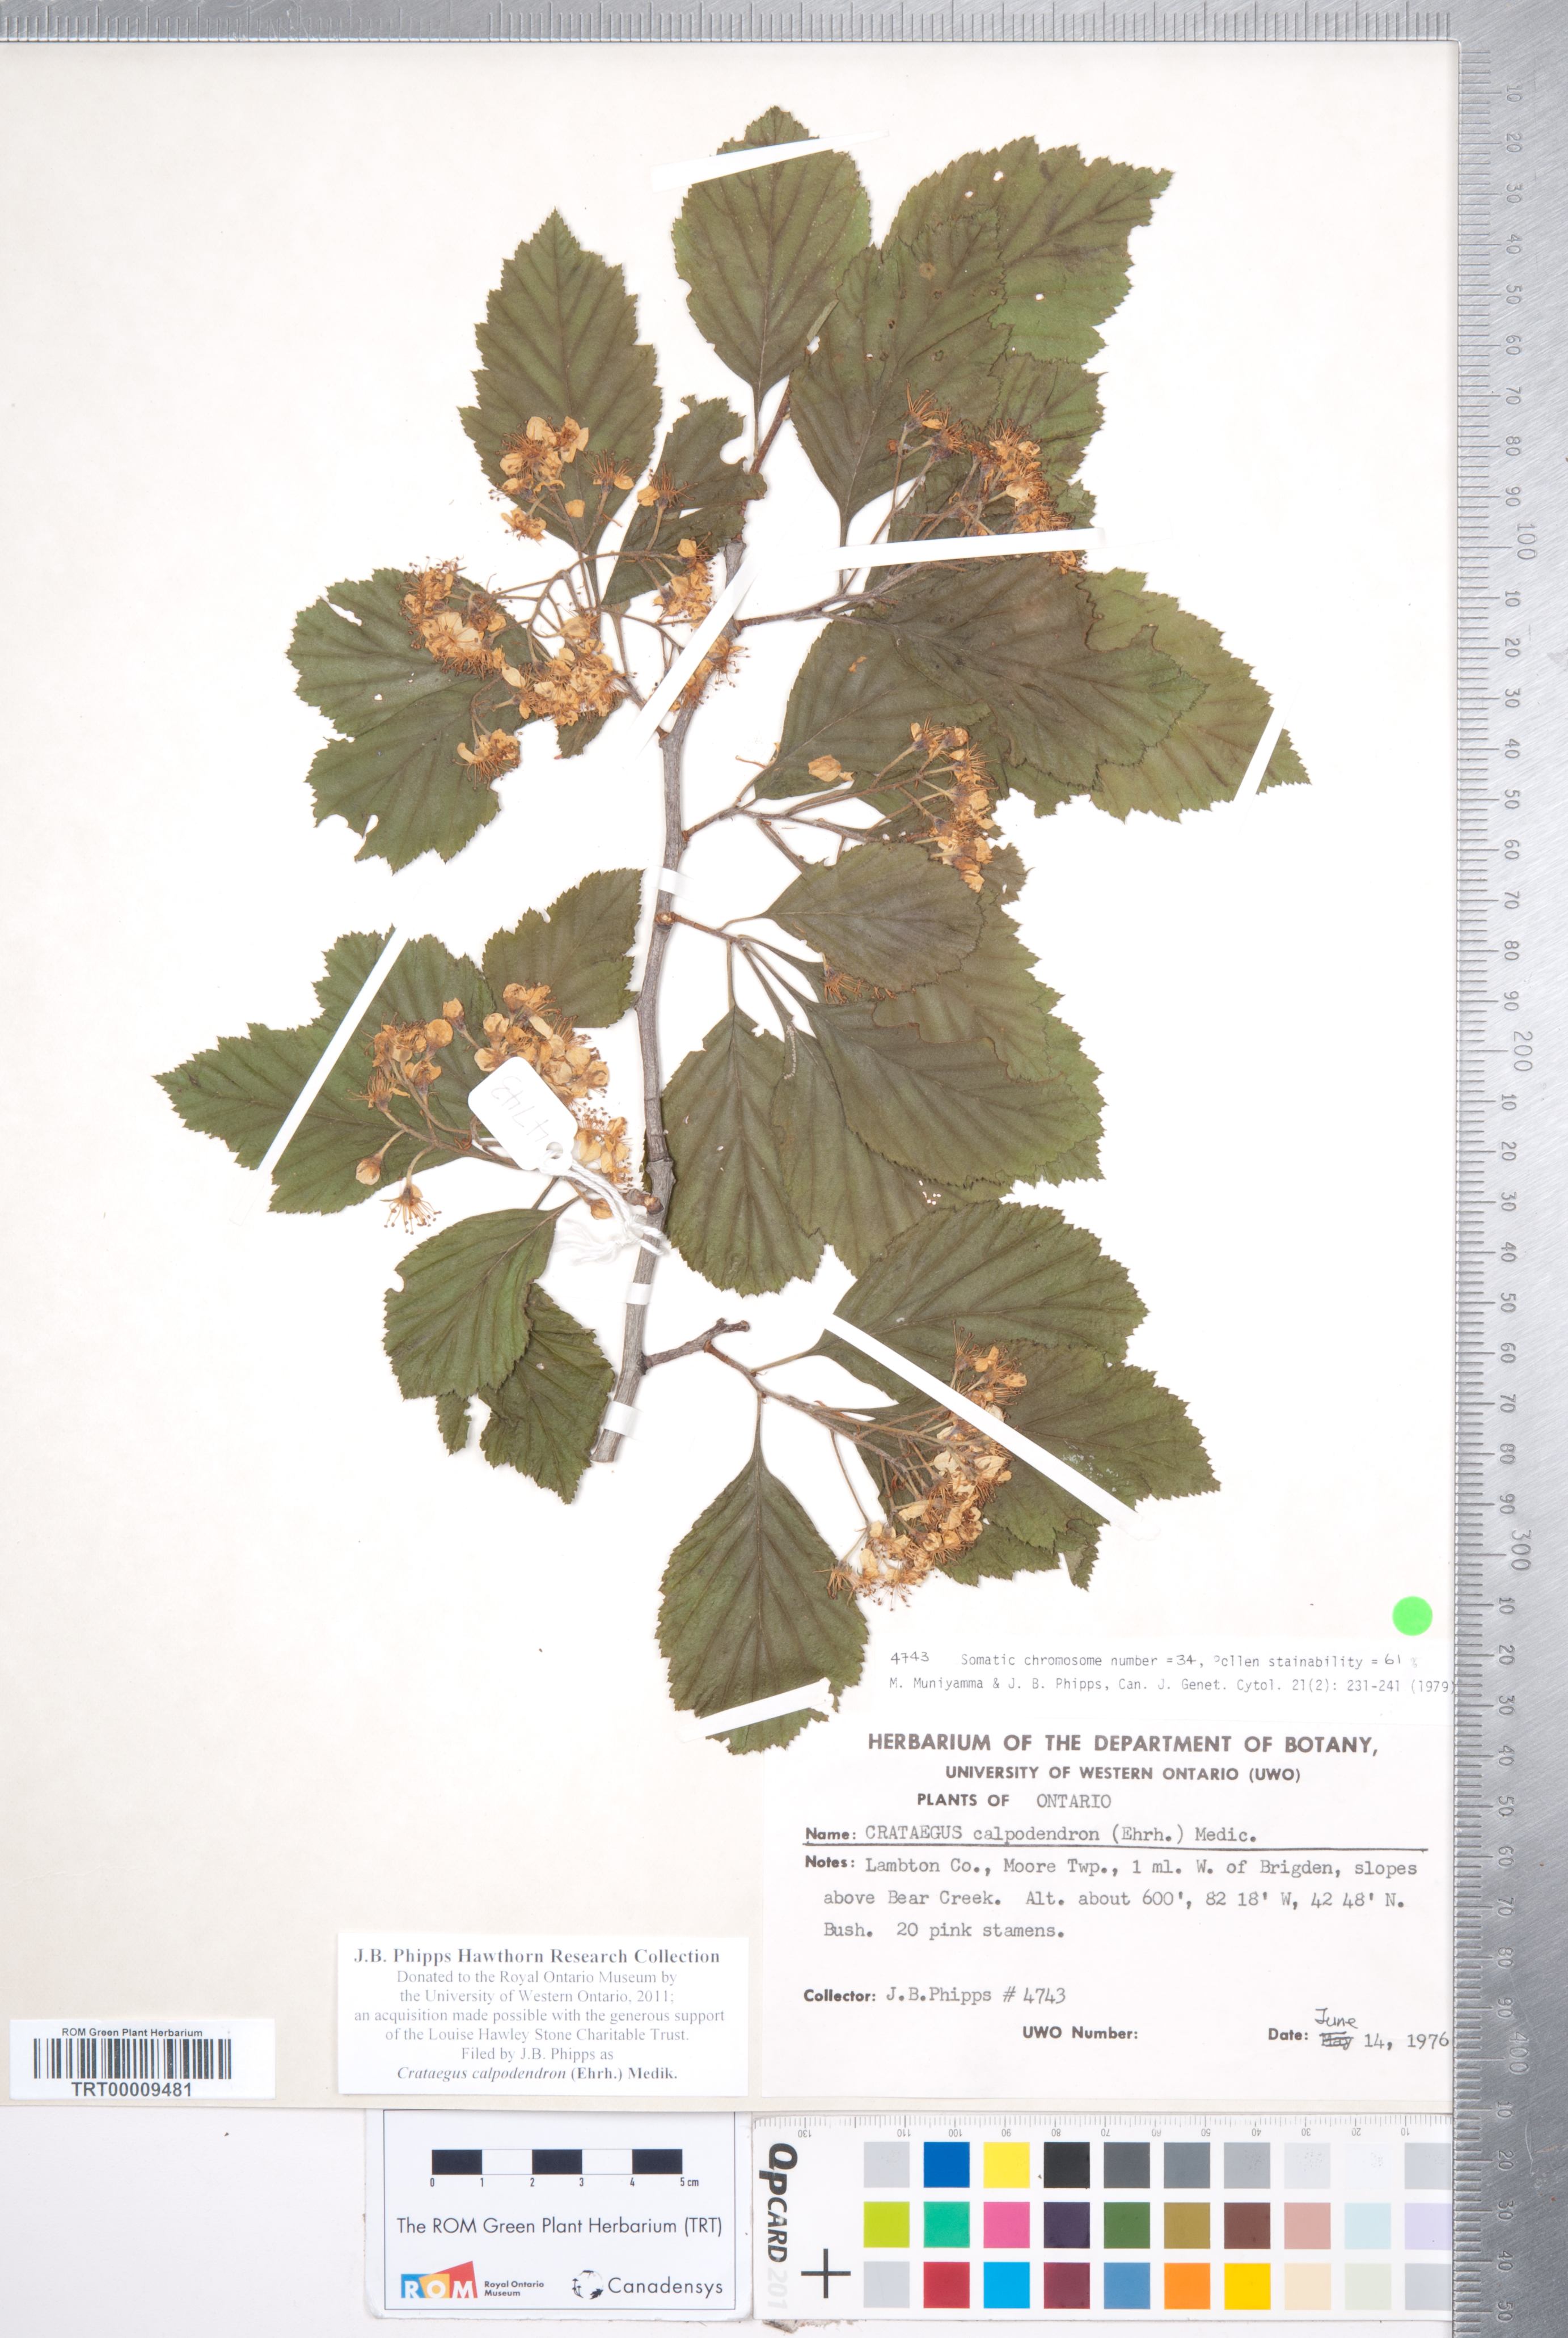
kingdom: Plantae
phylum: Tracheophyta
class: Magnoliopsida
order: Rosales
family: Rosaceae
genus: Crataegus
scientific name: Crataegus calpodendron
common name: Pear hawthorn
